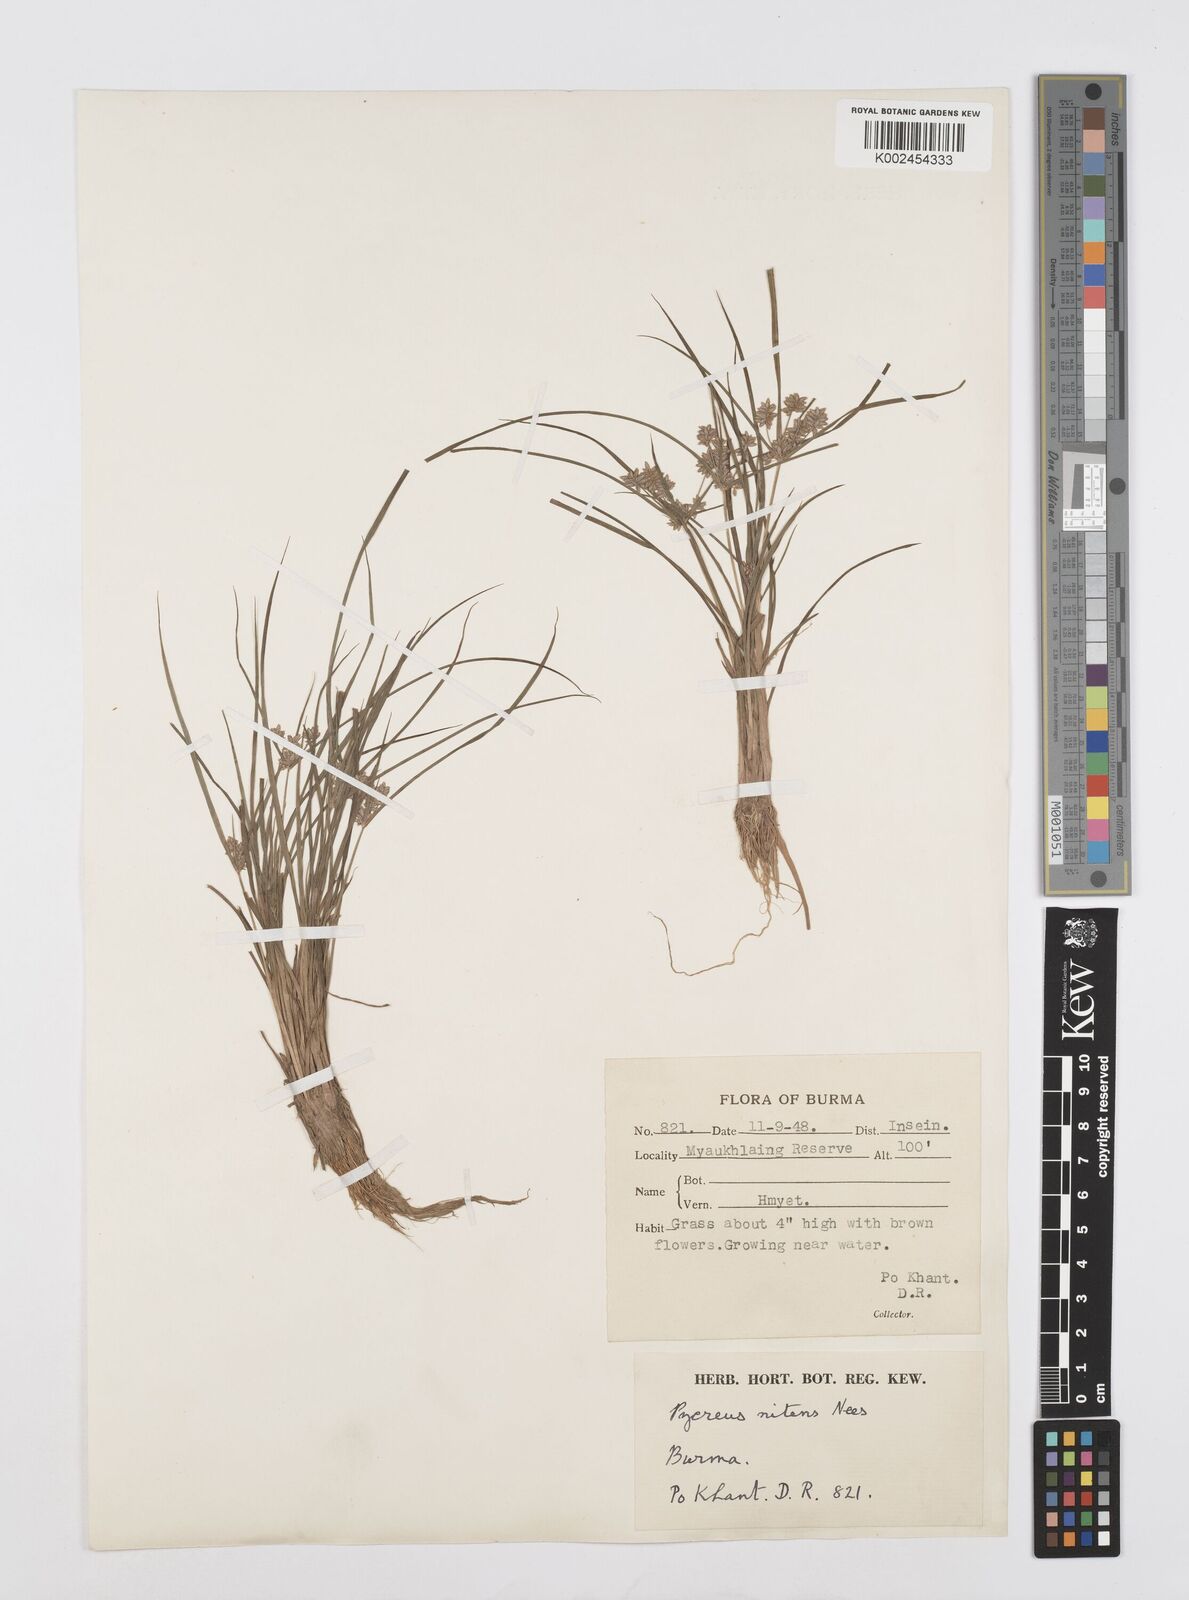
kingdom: Plantae
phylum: Tracheophyta
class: Liliopsida
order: Poales
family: Cyperaceae
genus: Cyperus
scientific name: Cyperus pumilus
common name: Low flatsedge
